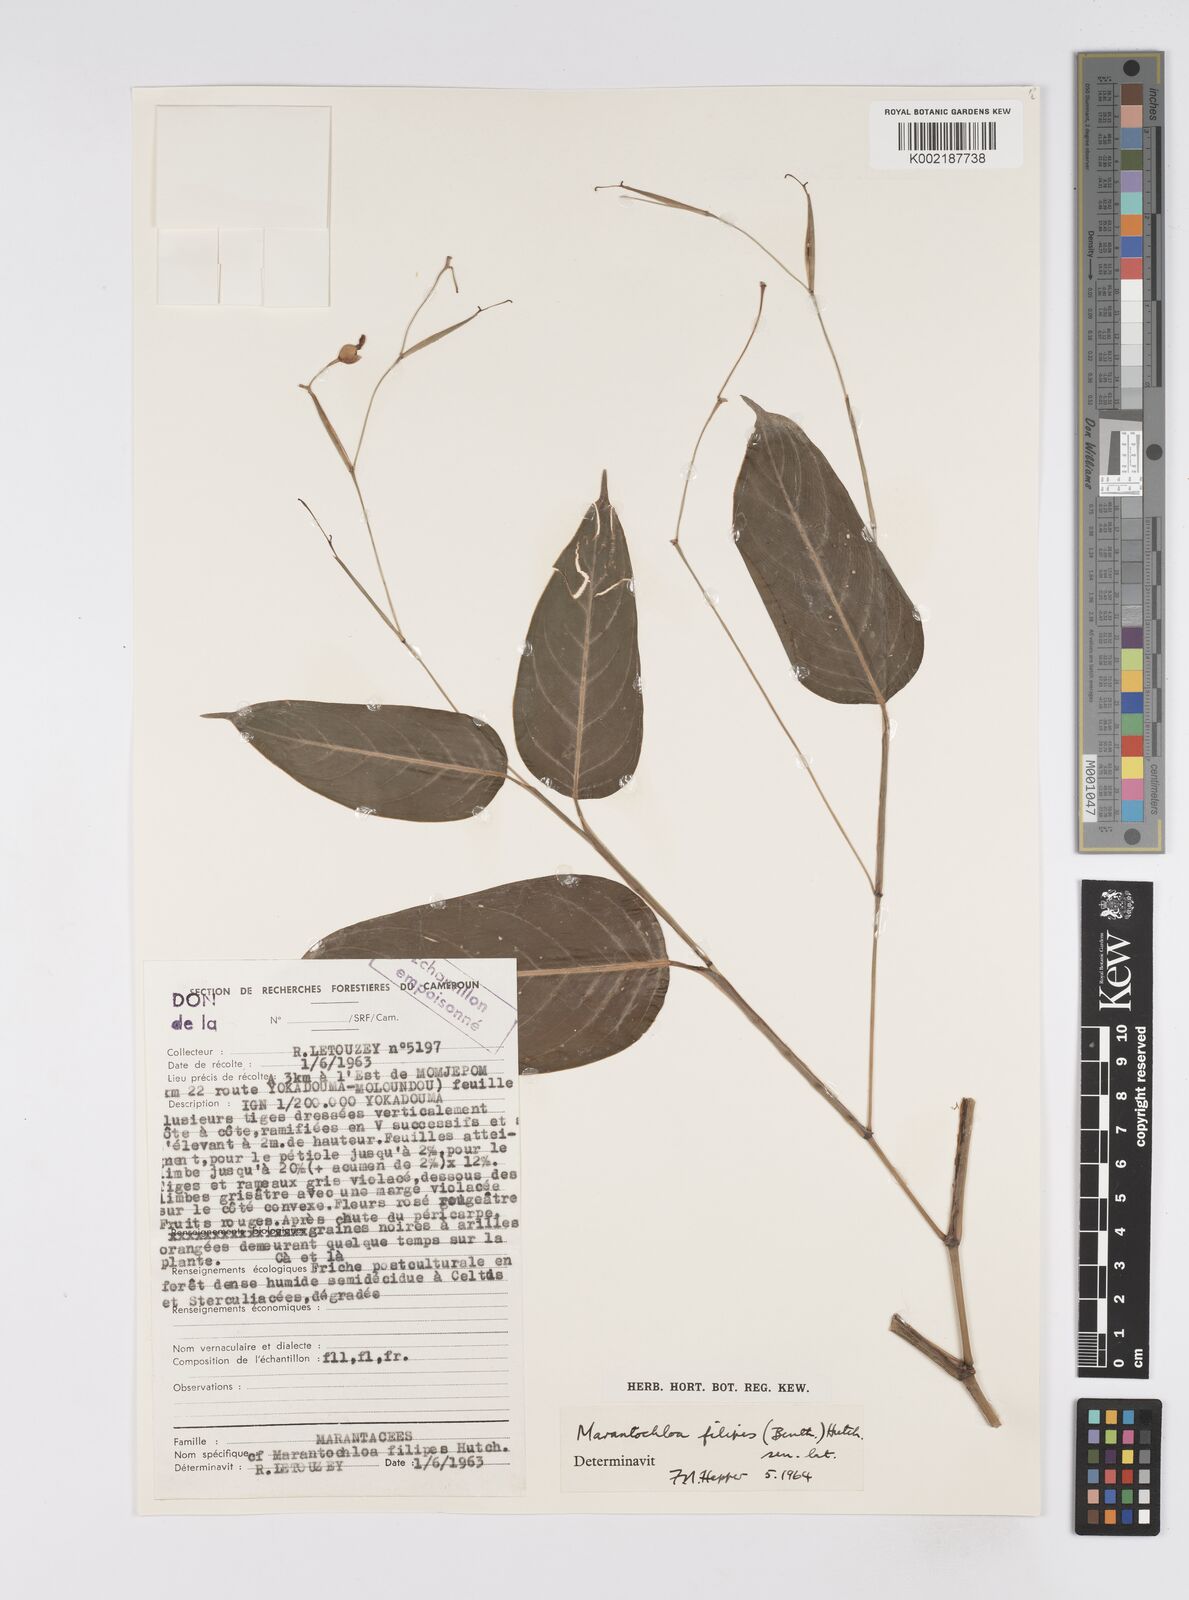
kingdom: Plantae
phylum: Tracheophyta
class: Liliopsida
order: Zingiberales
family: Marantaceae
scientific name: Marantaceae
